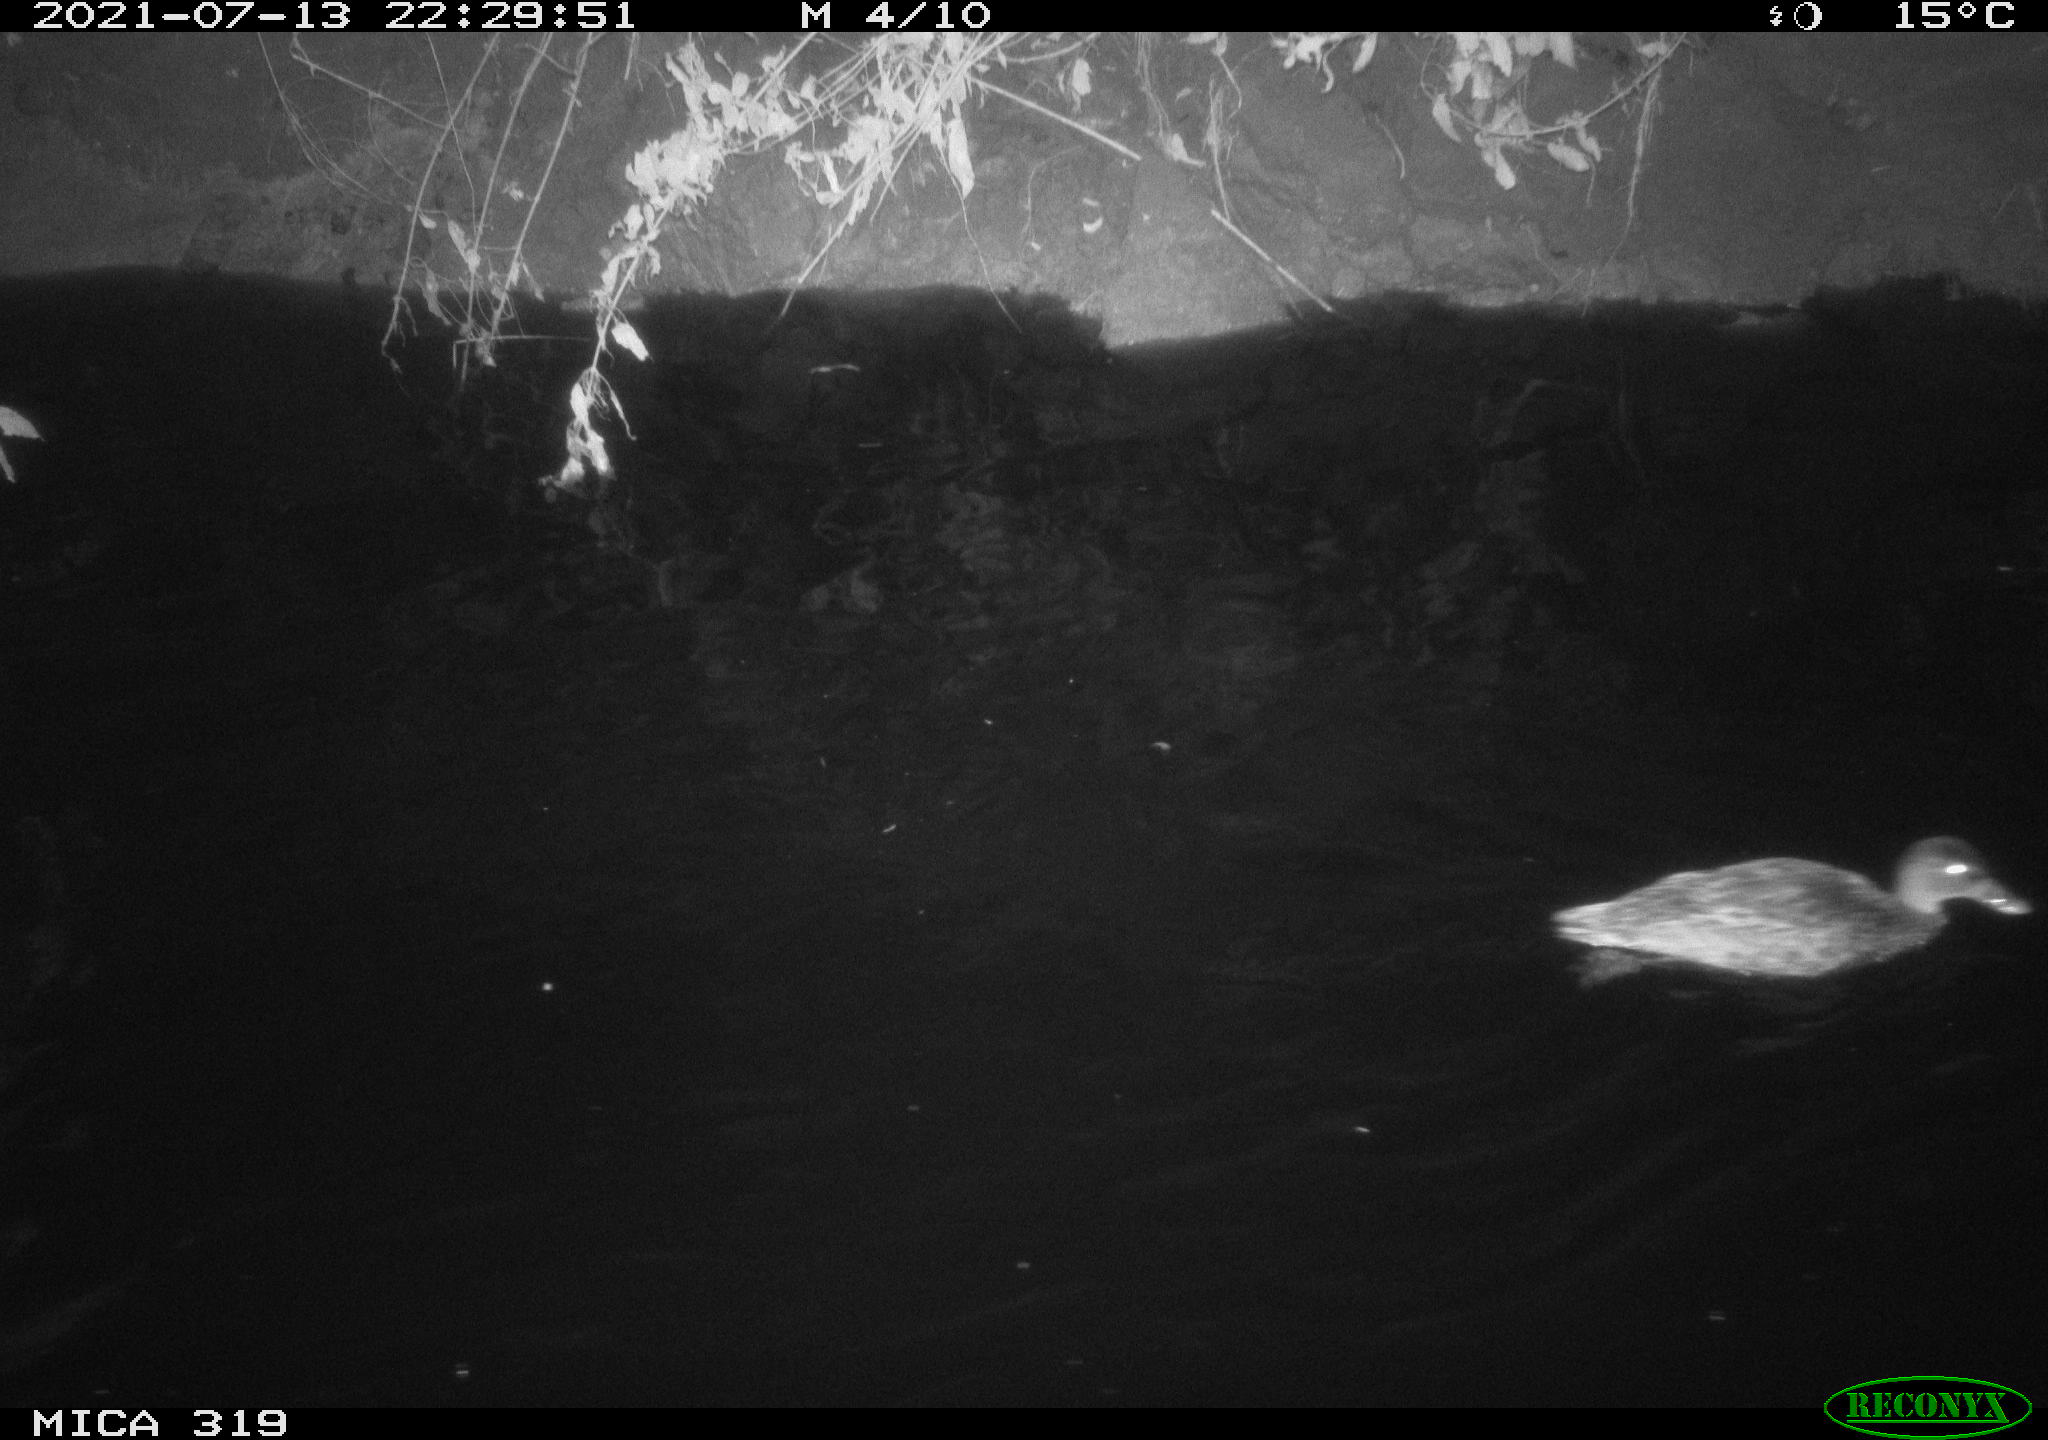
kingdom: Animalia
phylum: Chordata
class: Aves
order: Anseriformes
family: Anatidae
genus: Anas
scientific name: Anas platyrhynchos
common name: Mallard
